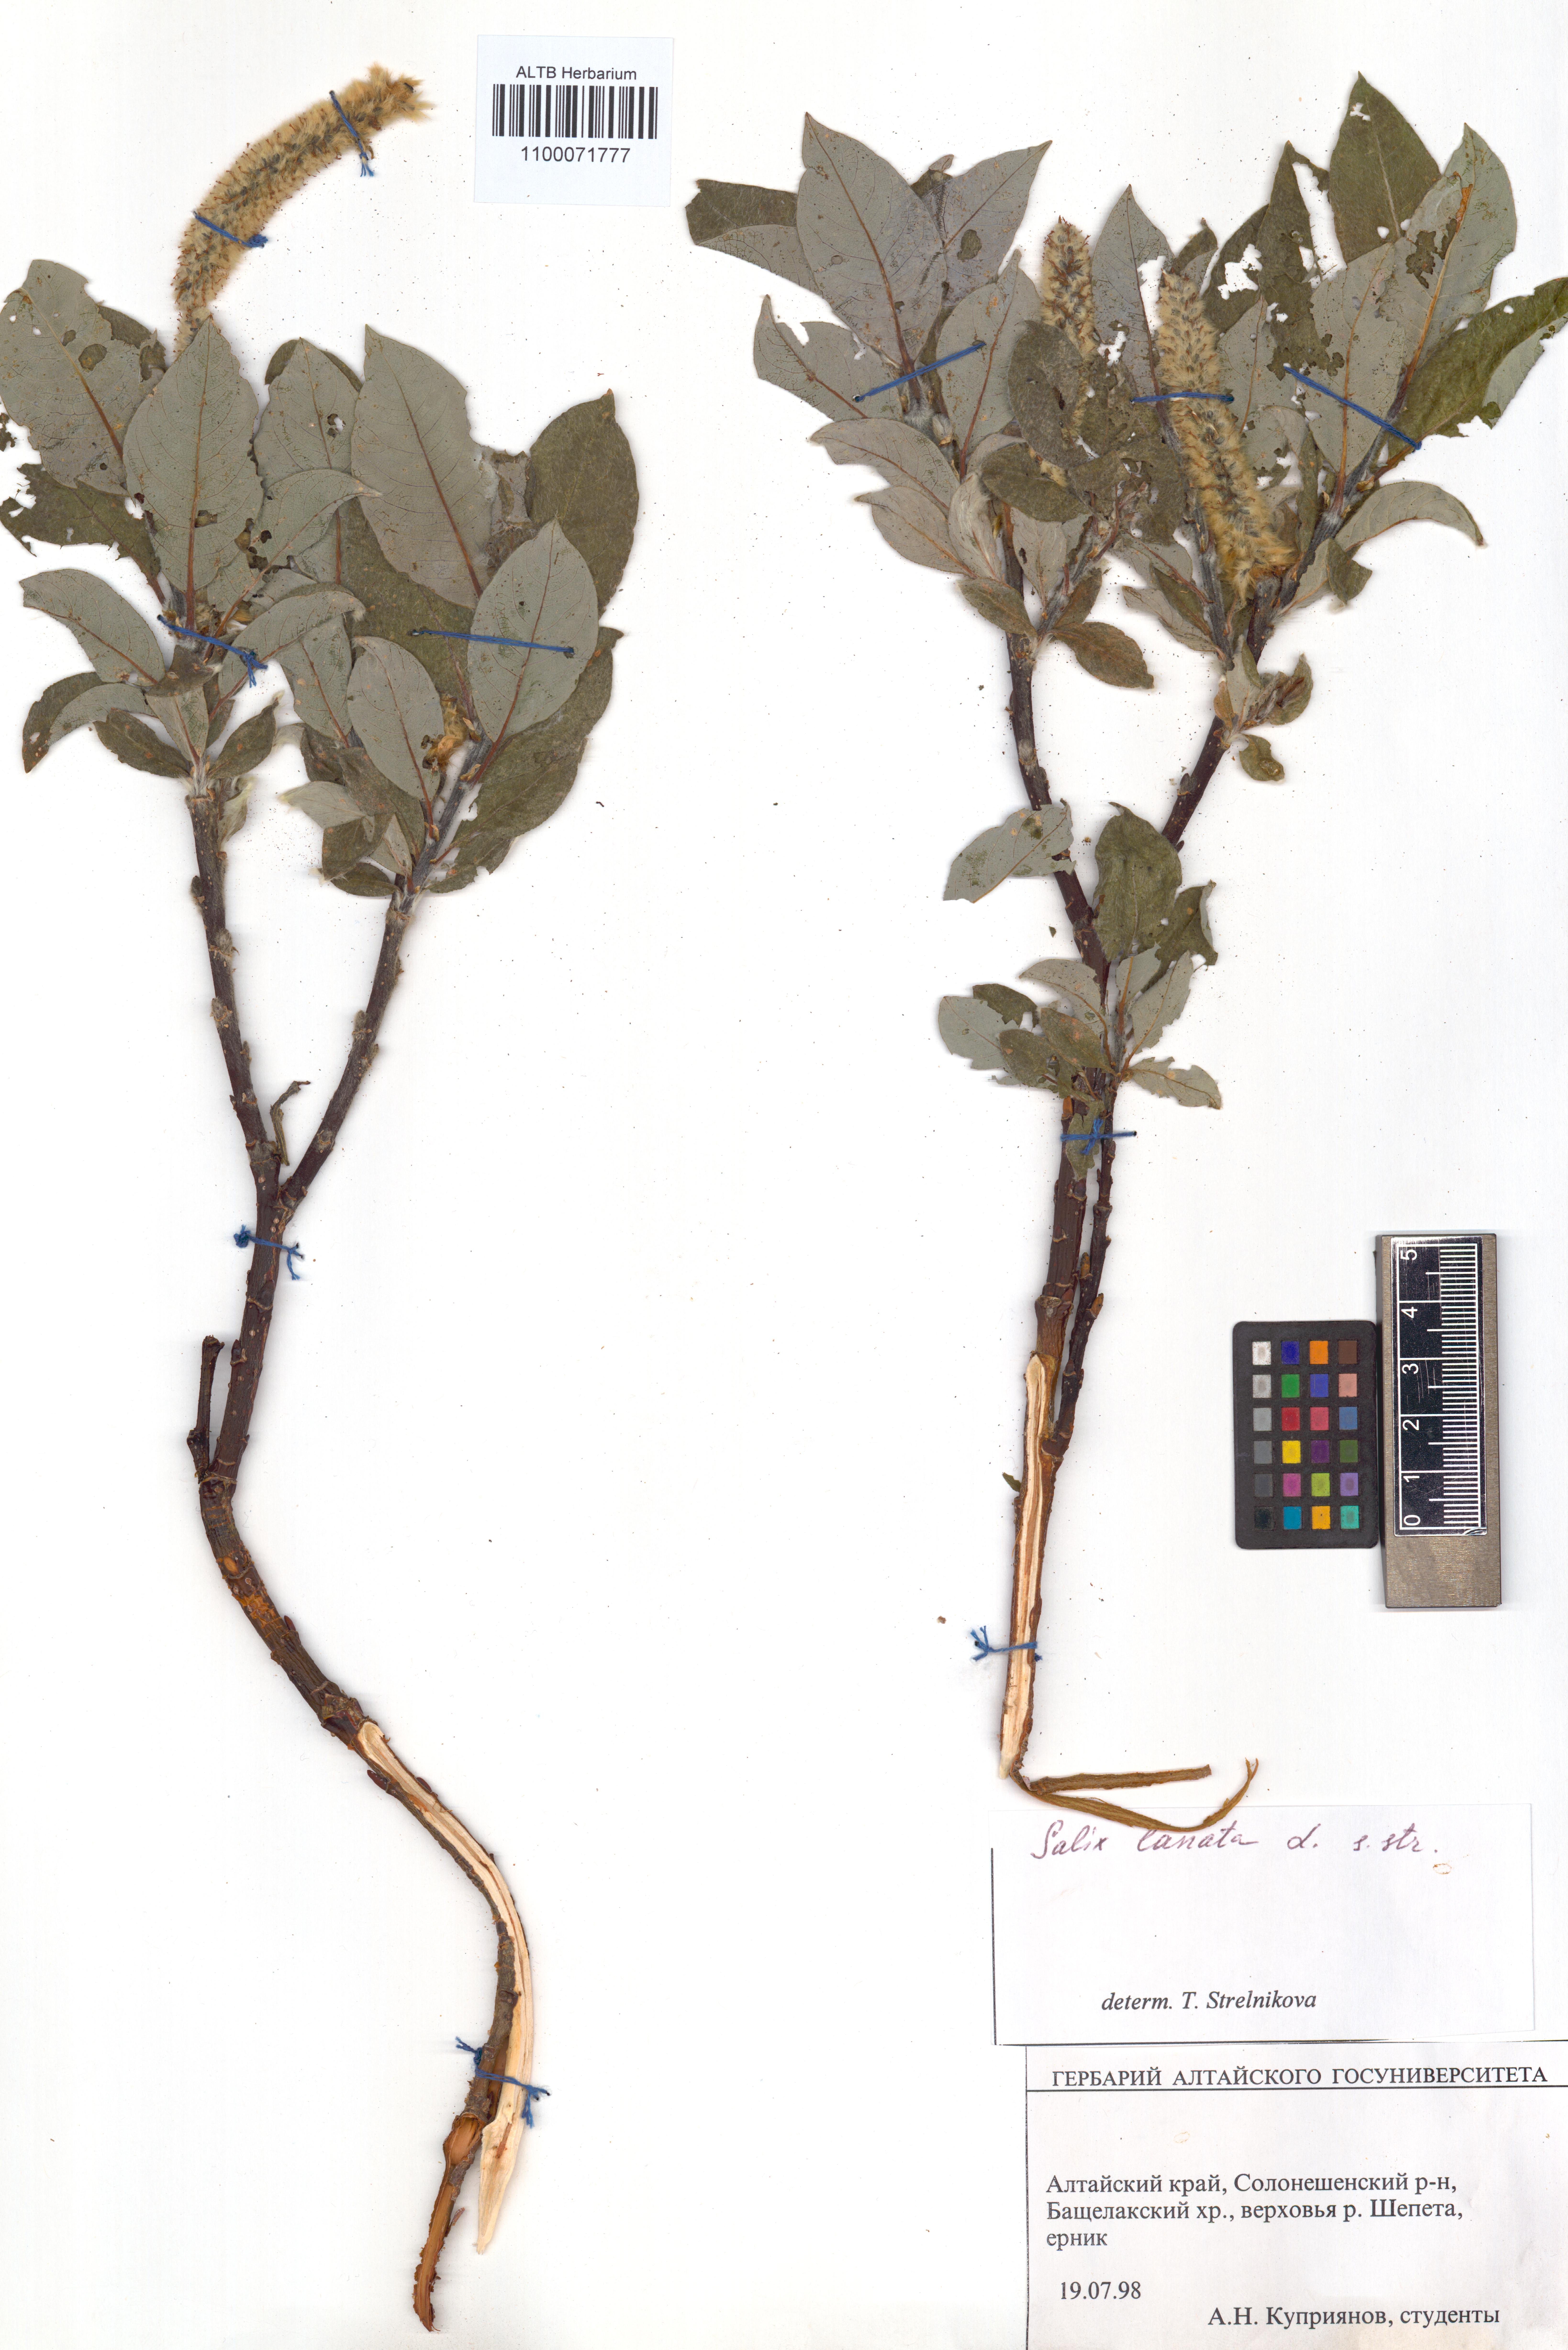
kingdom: Plantae
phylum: Tracheophyta
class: Magnoliopsida
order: Malpighiales
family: Salicaceae
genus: Salix
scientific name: Salix lanata
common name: Woolly willow
